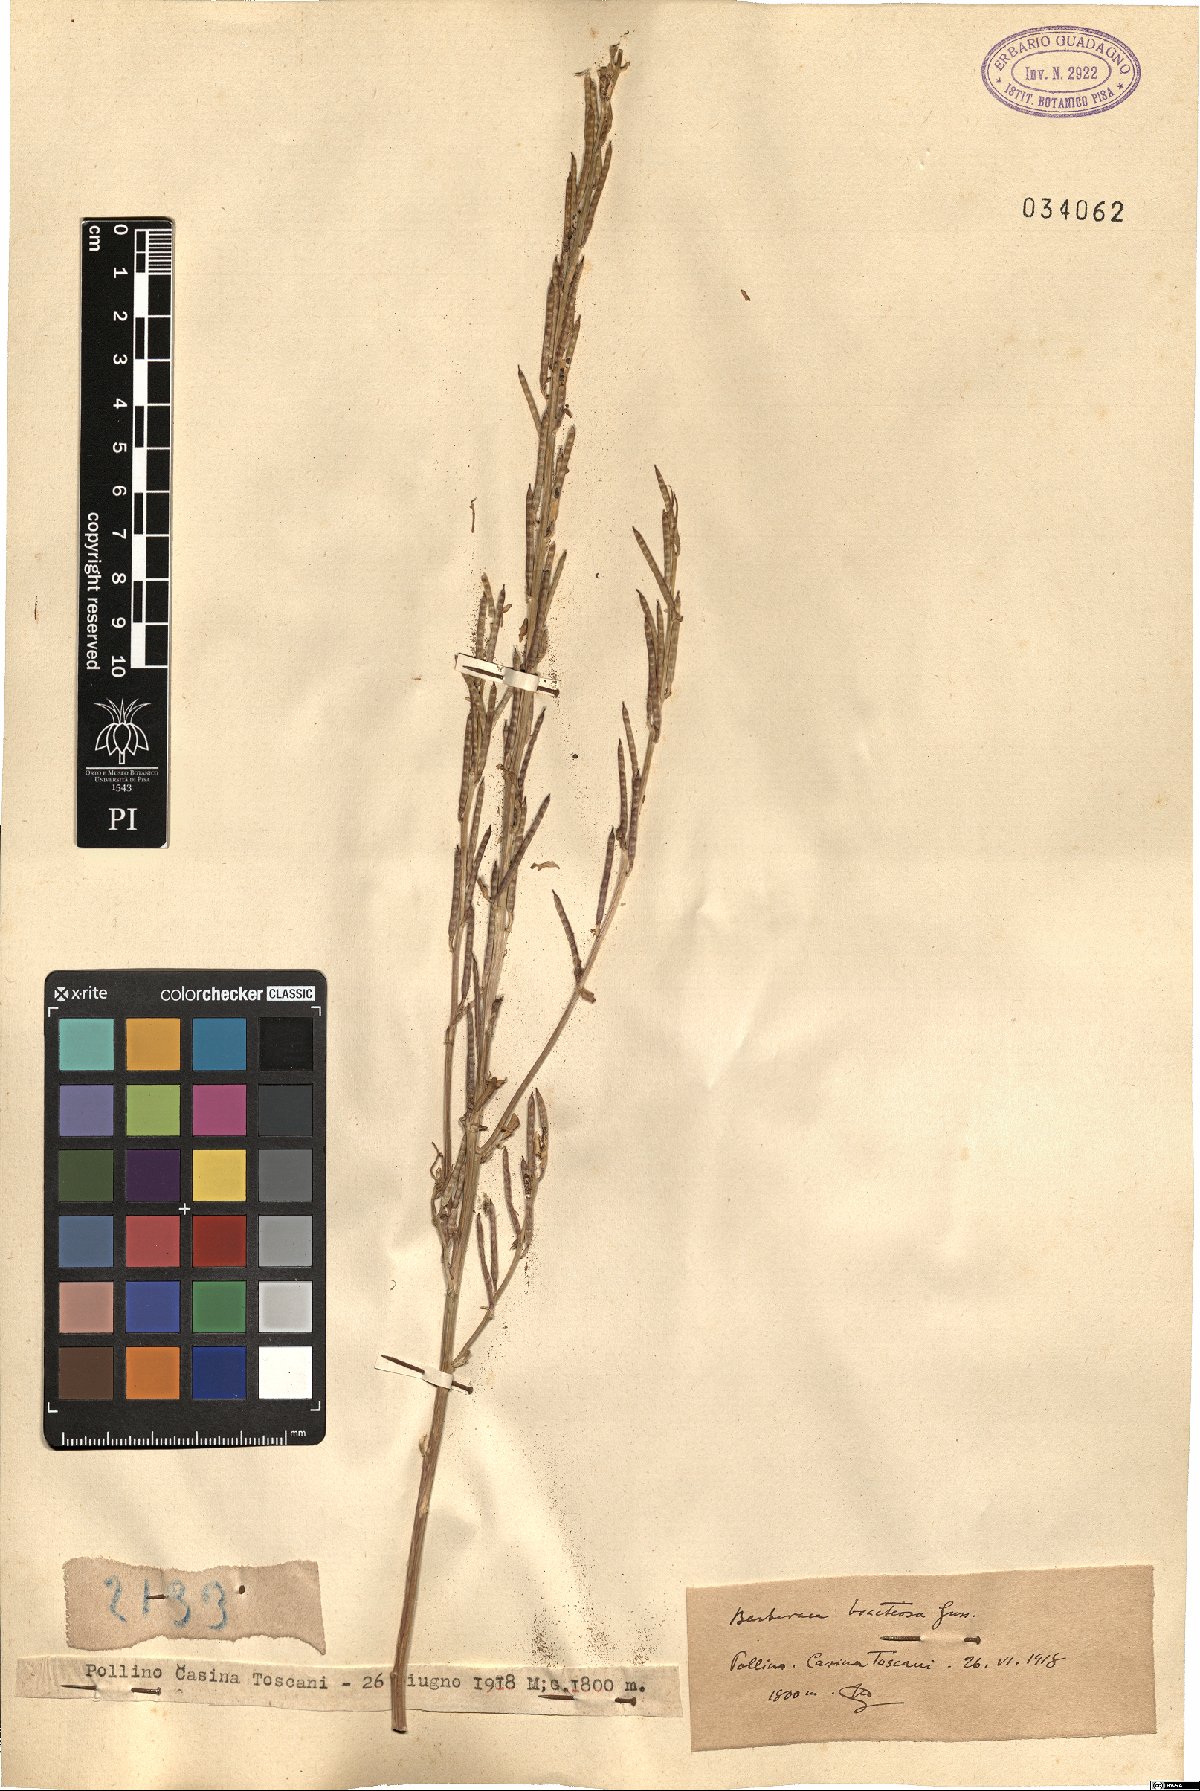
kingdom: Plantae
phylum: Tracheophyta
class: Magnoliopsida
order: Brassicales
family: Brassicaceae
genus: Barbarea
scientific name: Barbarea bracteosa
